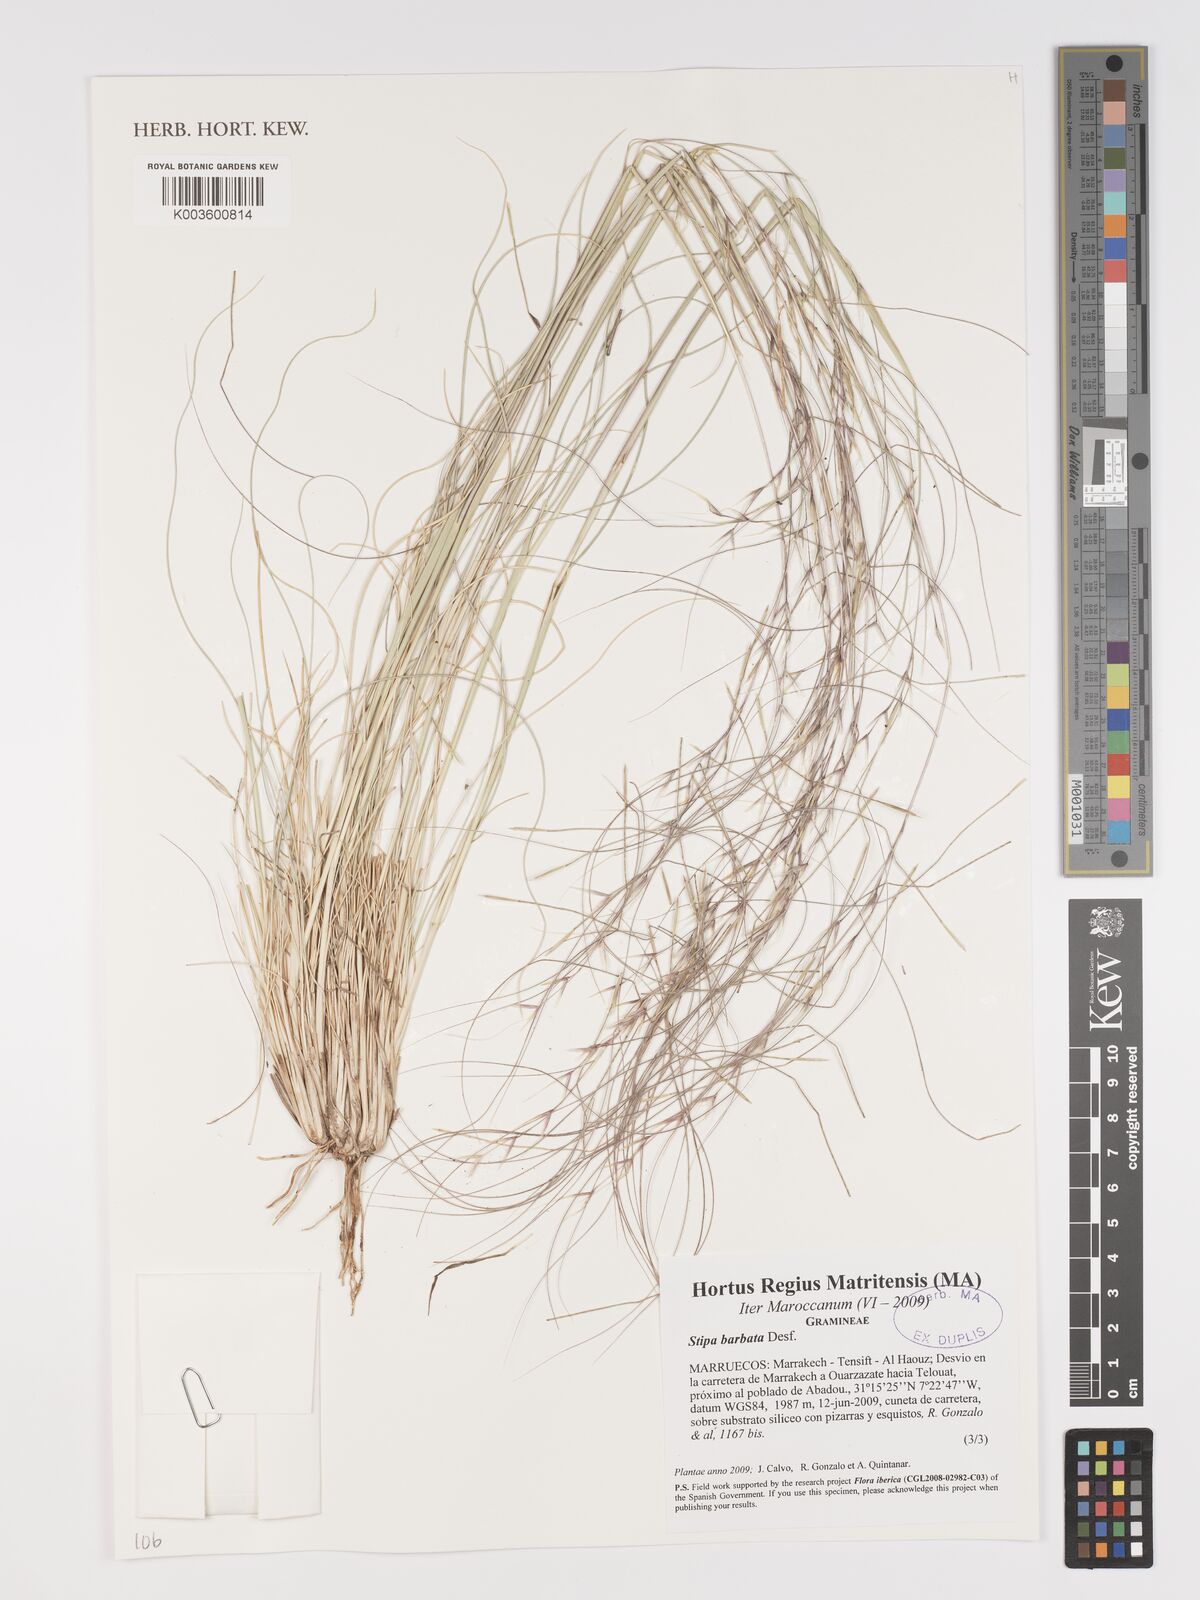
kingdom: Plantae
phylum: Tracheophyta
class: Liliopsida
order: Poales
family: Poaceae
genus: Stipa
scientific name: Stipa barbata
